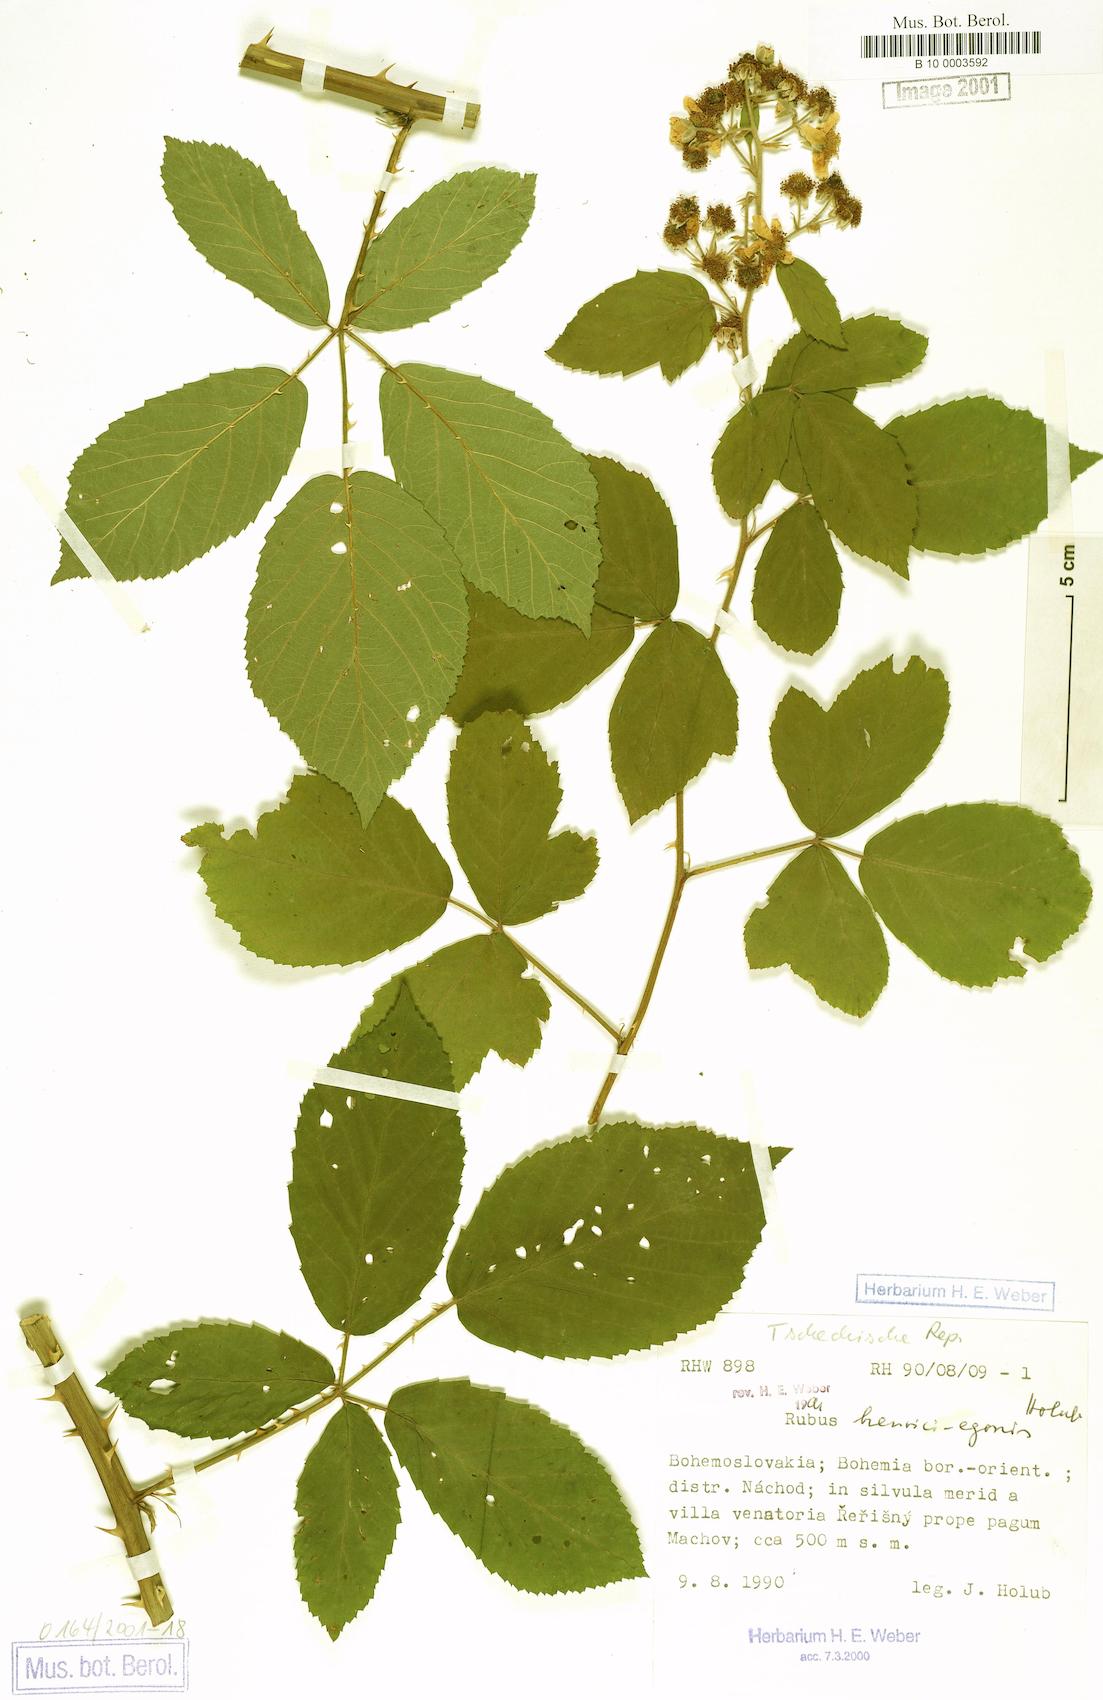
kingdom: Plantae
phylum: Tracheophyta
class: Magnoliopsida
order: Rosales
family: Rosaceae
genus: Rubus
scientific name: Rubus henrici-egonis
